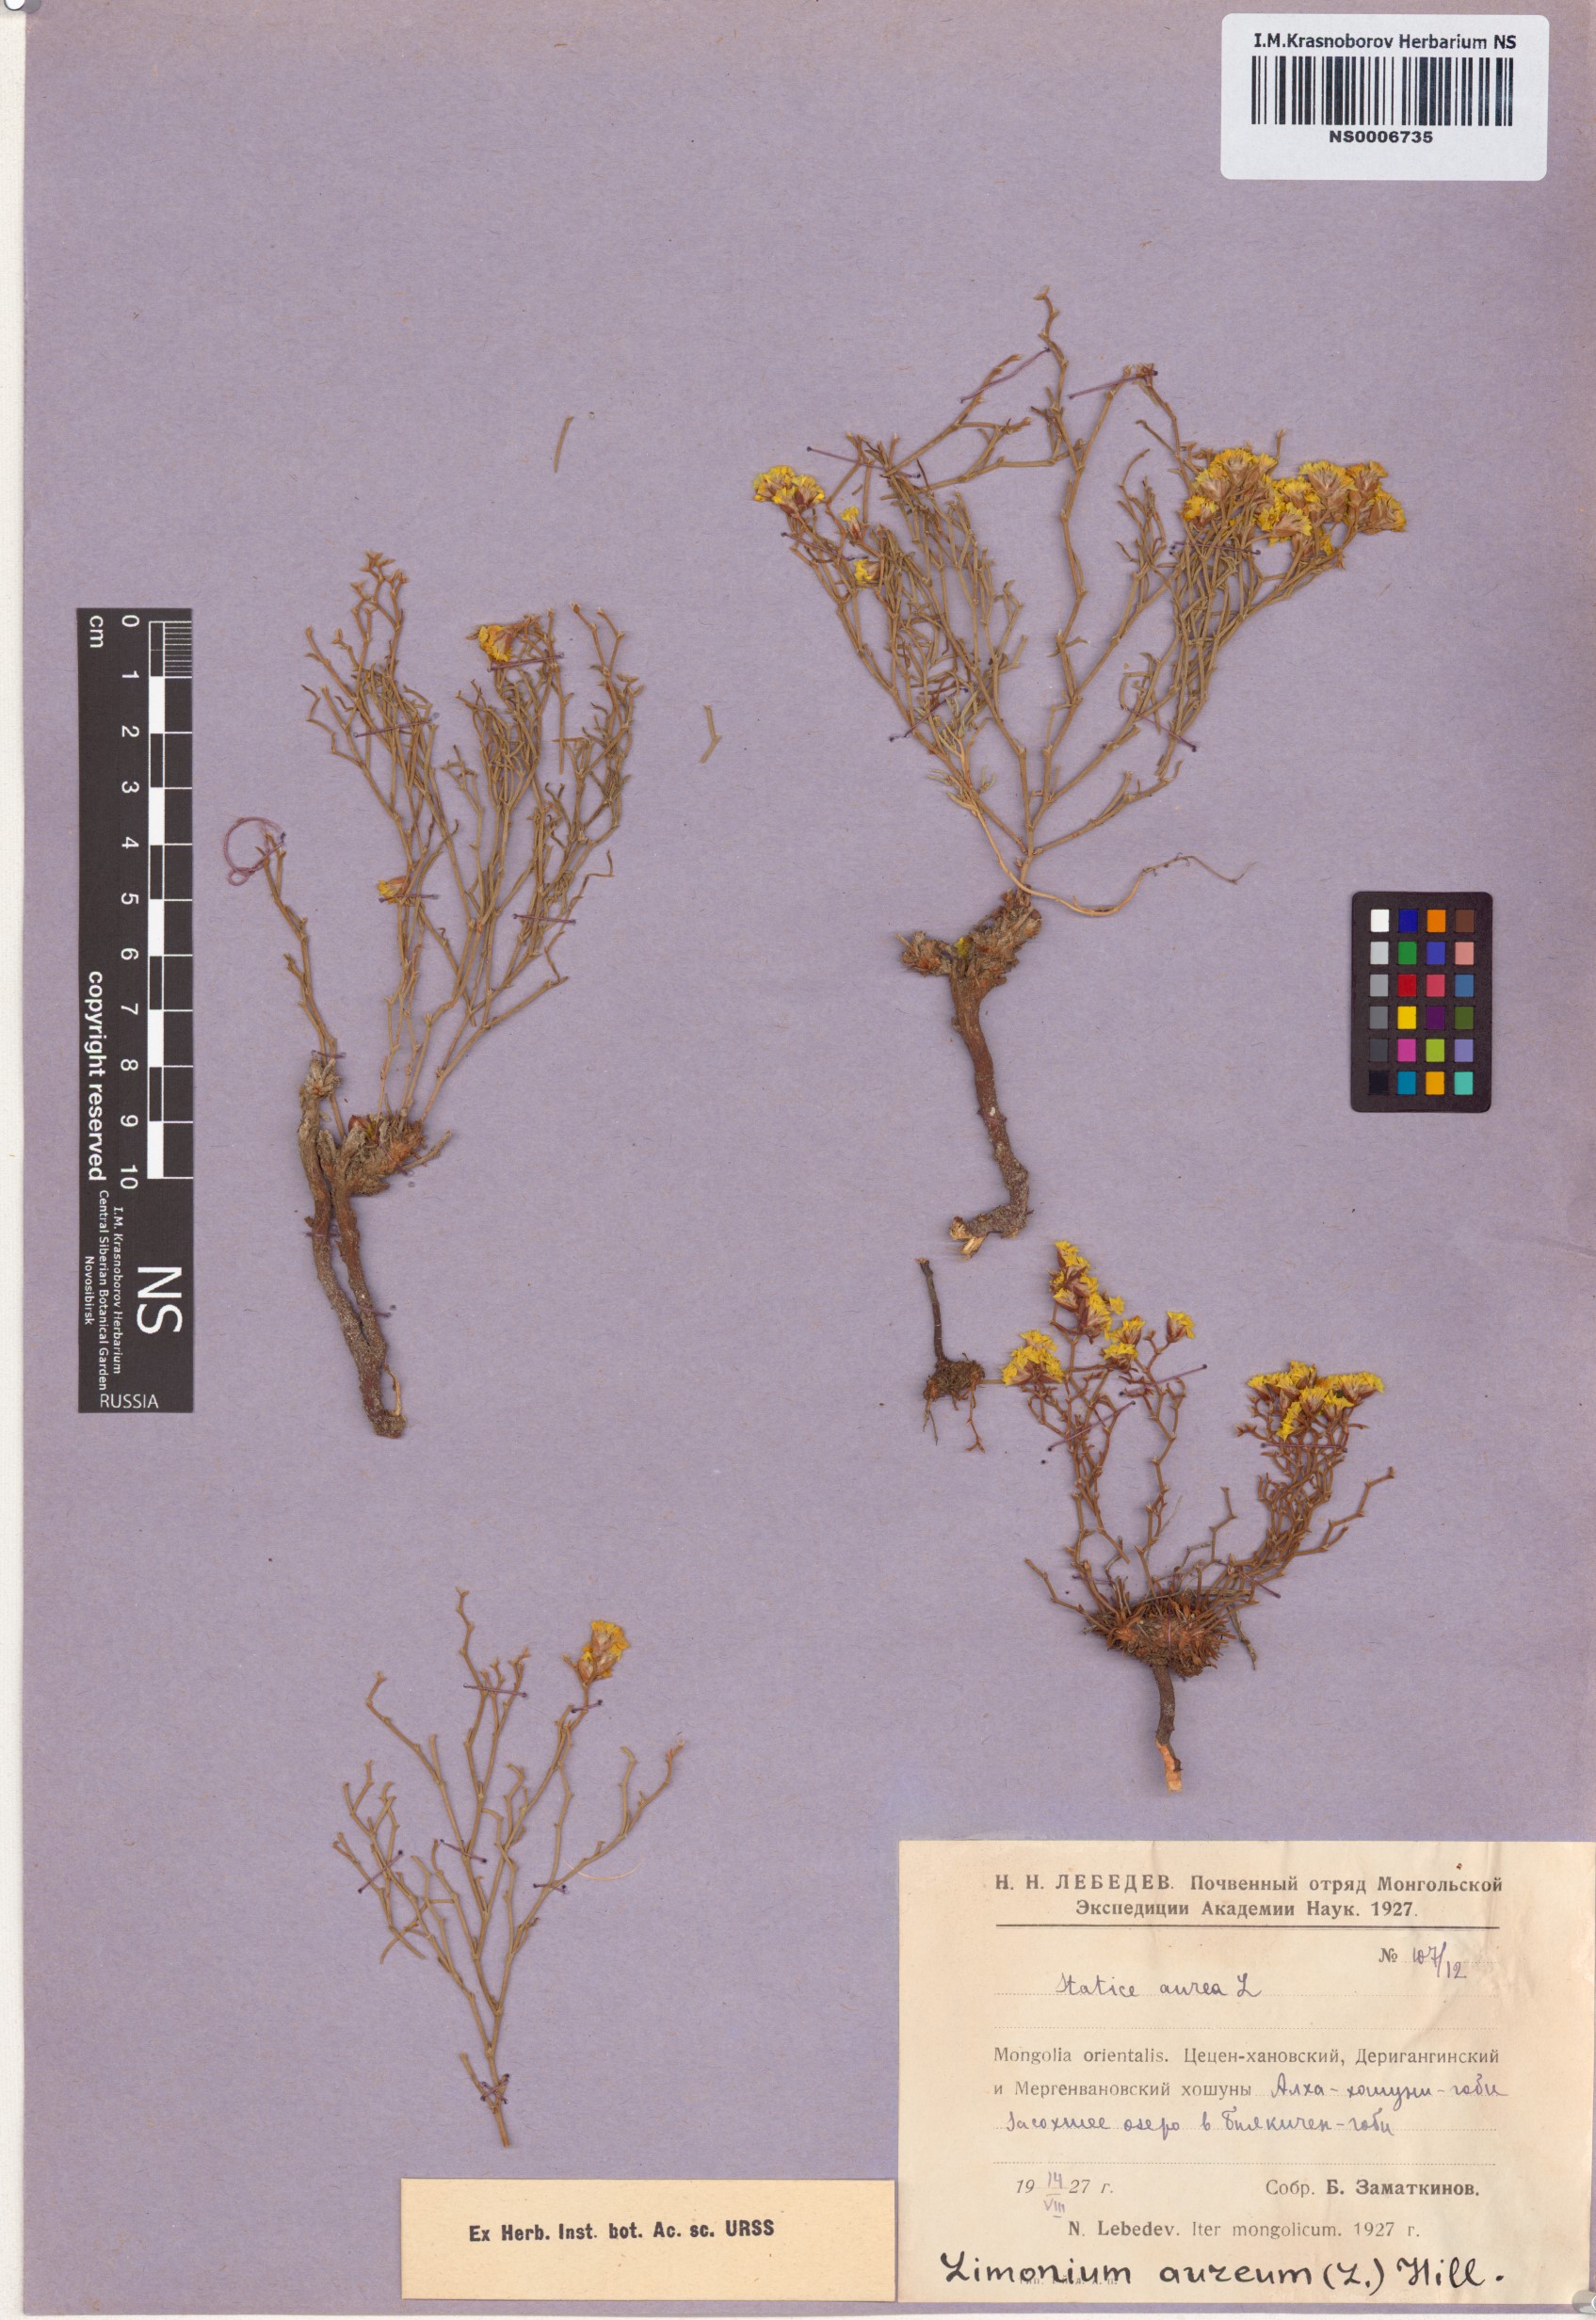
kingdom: Plantae
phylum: Tracheophyta
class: Magnoliopsida
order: Caryophyllales
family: Plumbaginaceae
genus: Limonium
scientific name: Limonium aureum
